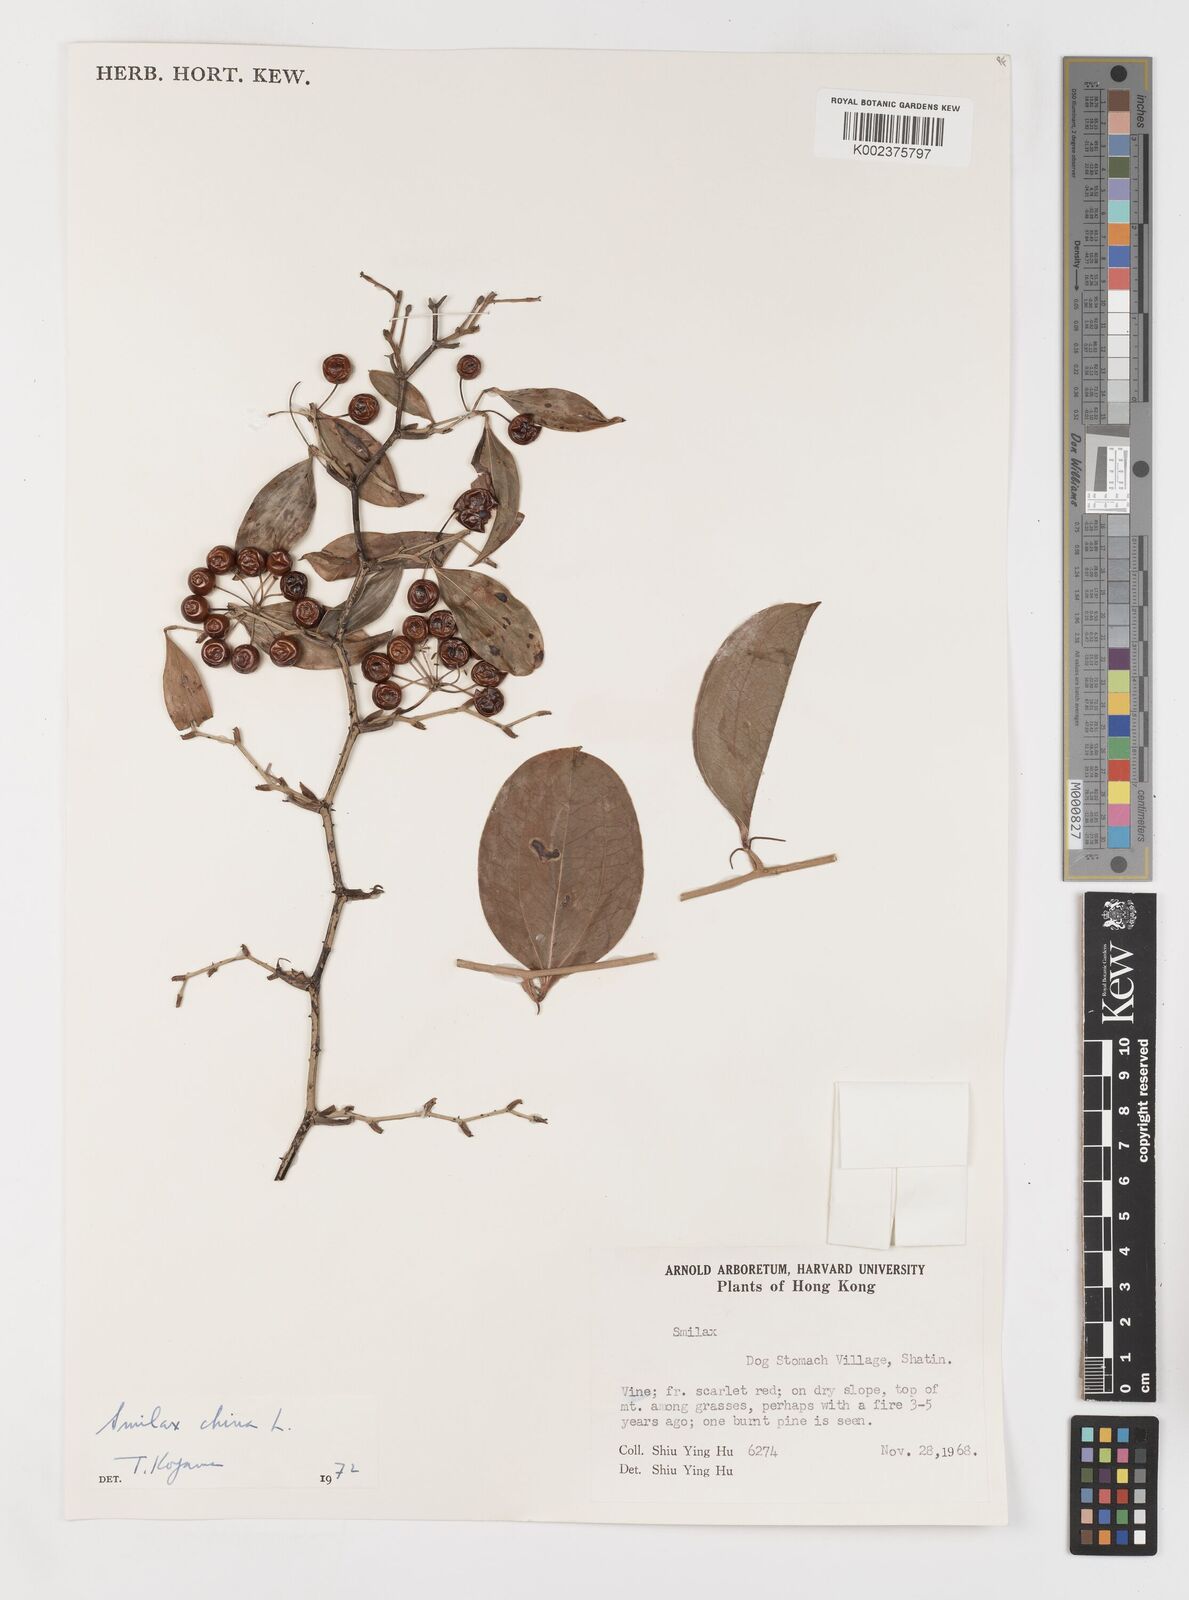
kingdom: Plantae
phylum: Tracheophyta
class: Liliopsida
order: Liliales
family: Smilacaceae
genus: Smilax
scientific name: Smilax china
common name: Chinaroot
